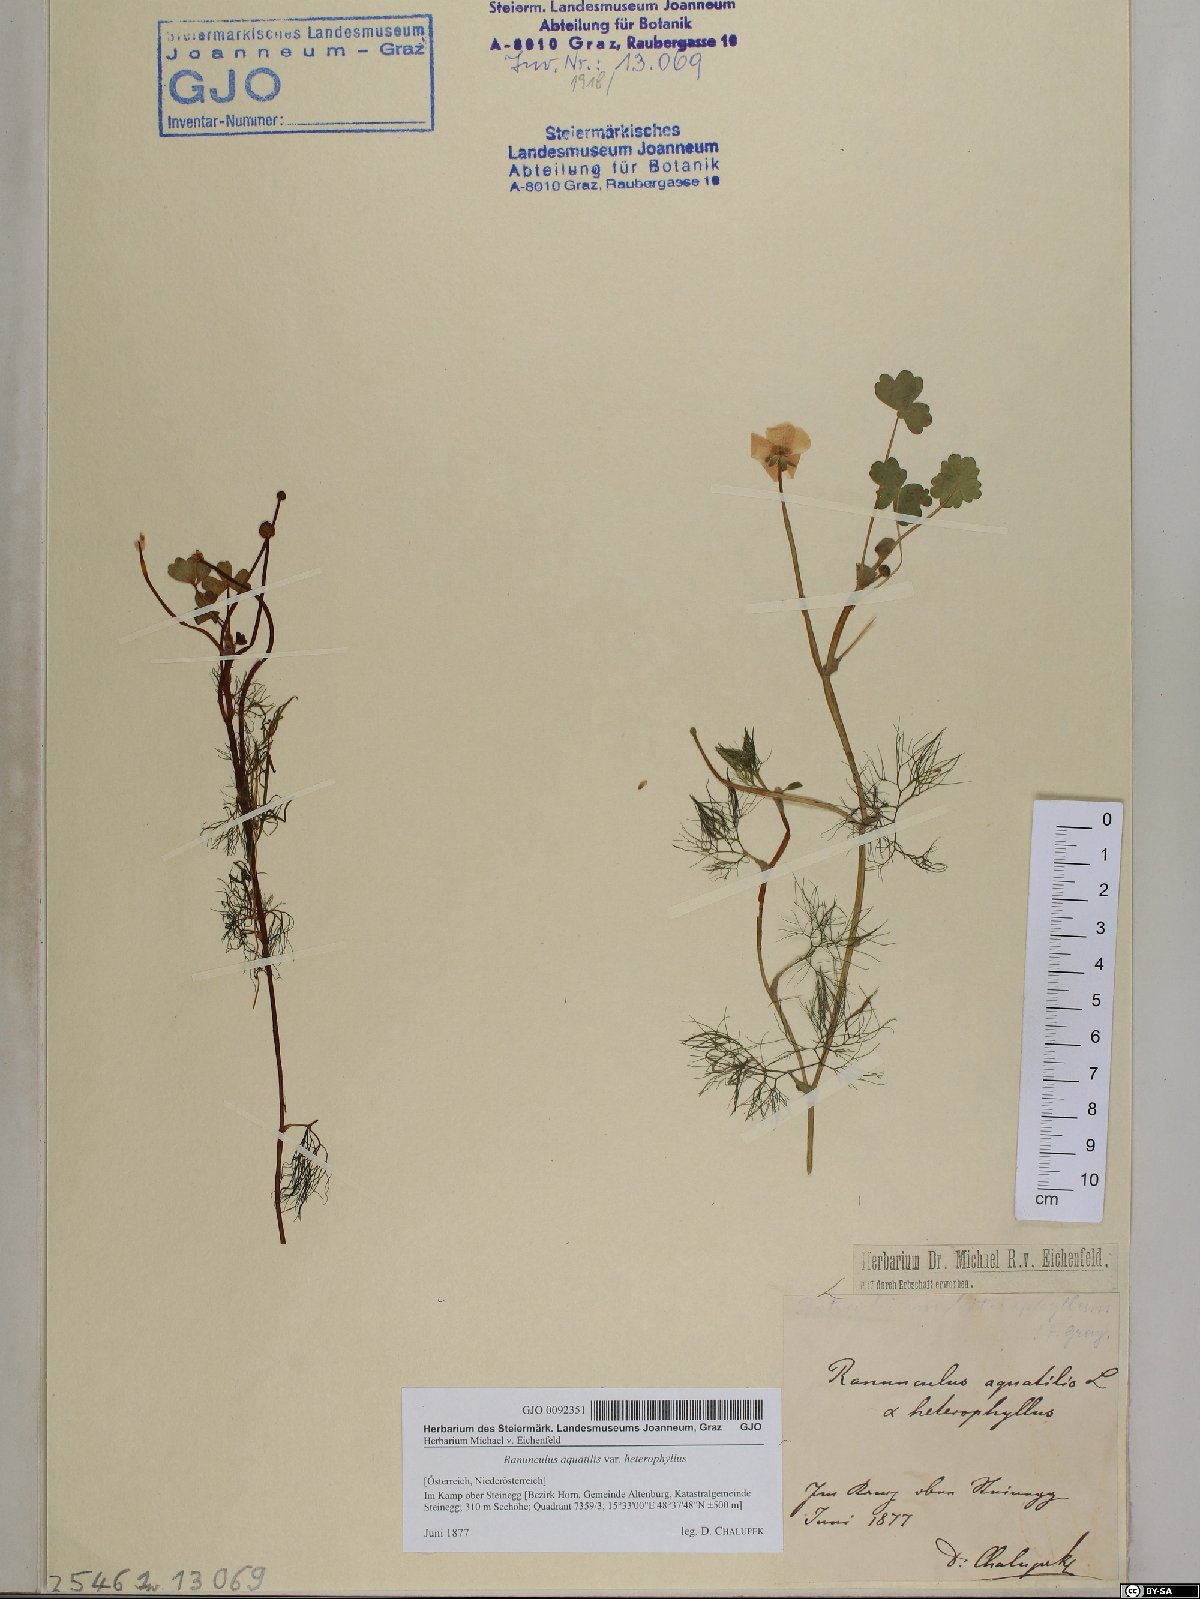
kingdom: Plantae
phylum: Tracheophyta
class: Magnoliopsida
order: Ranunculales
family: Ranunculaceae
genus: Ranunculus
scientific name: Ranunculus aquatilis
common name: Common water-crowfoot
